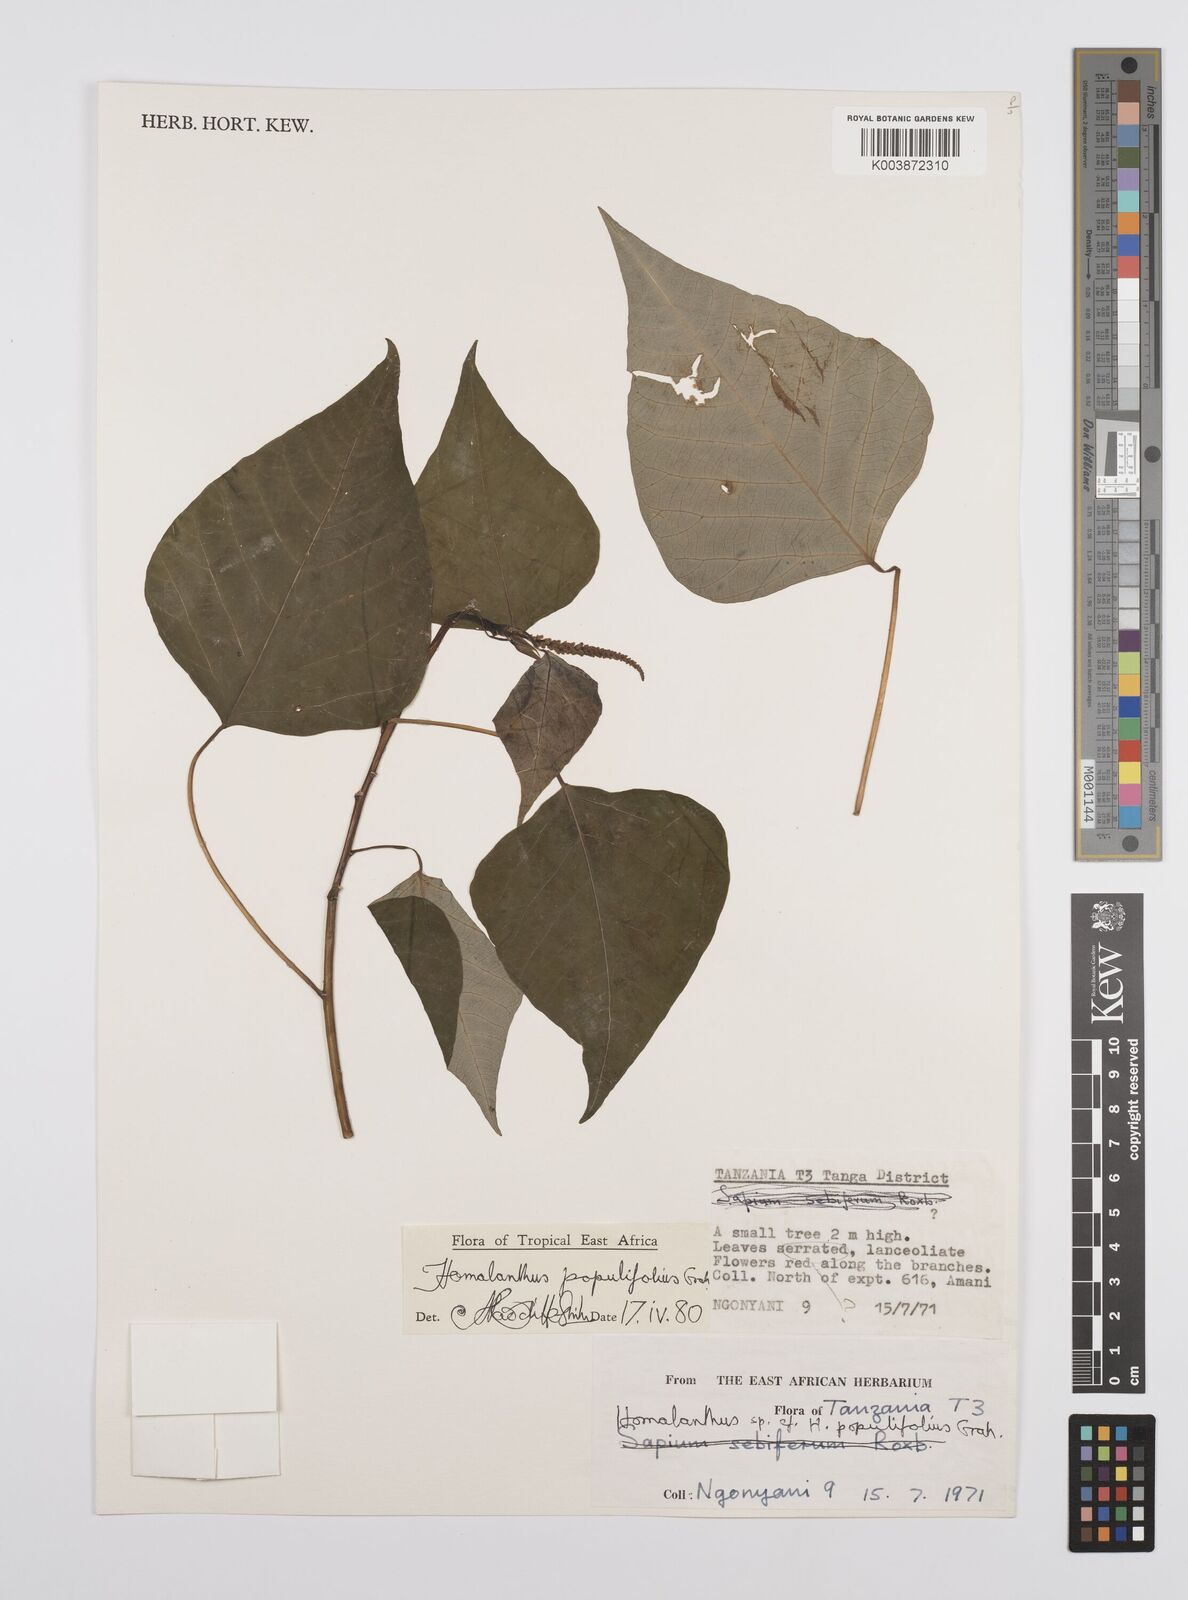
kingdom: Plantae
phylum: Tracheophyta
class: Magnoliopsida
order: Malpighiales
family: Euphorbiaceae
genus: Homalanthus
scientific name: Homalanthus populifolius
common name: Queensland poplar
